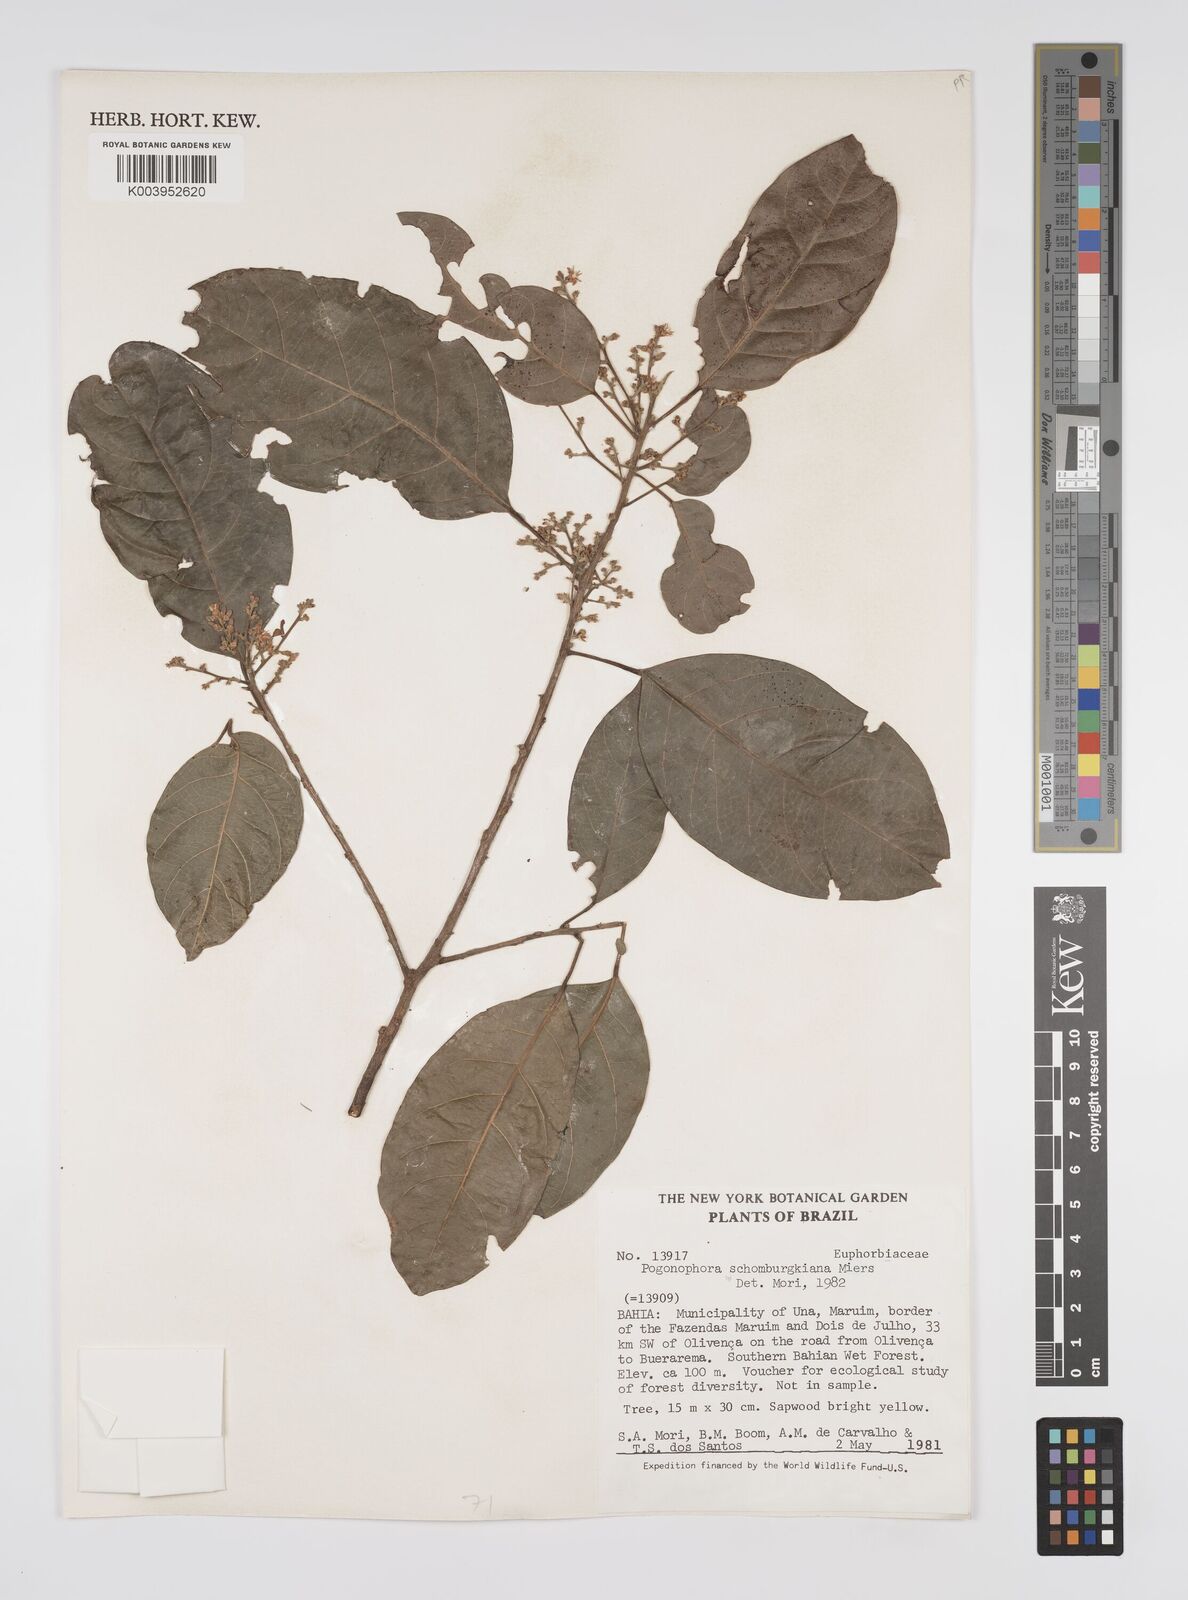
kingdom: Plantae
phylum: Tracheophyta
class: Magnoliopsida
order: Malpighiales
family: Peraceae
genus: Pogonophora
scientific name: Pogonophora schomburgkiana
